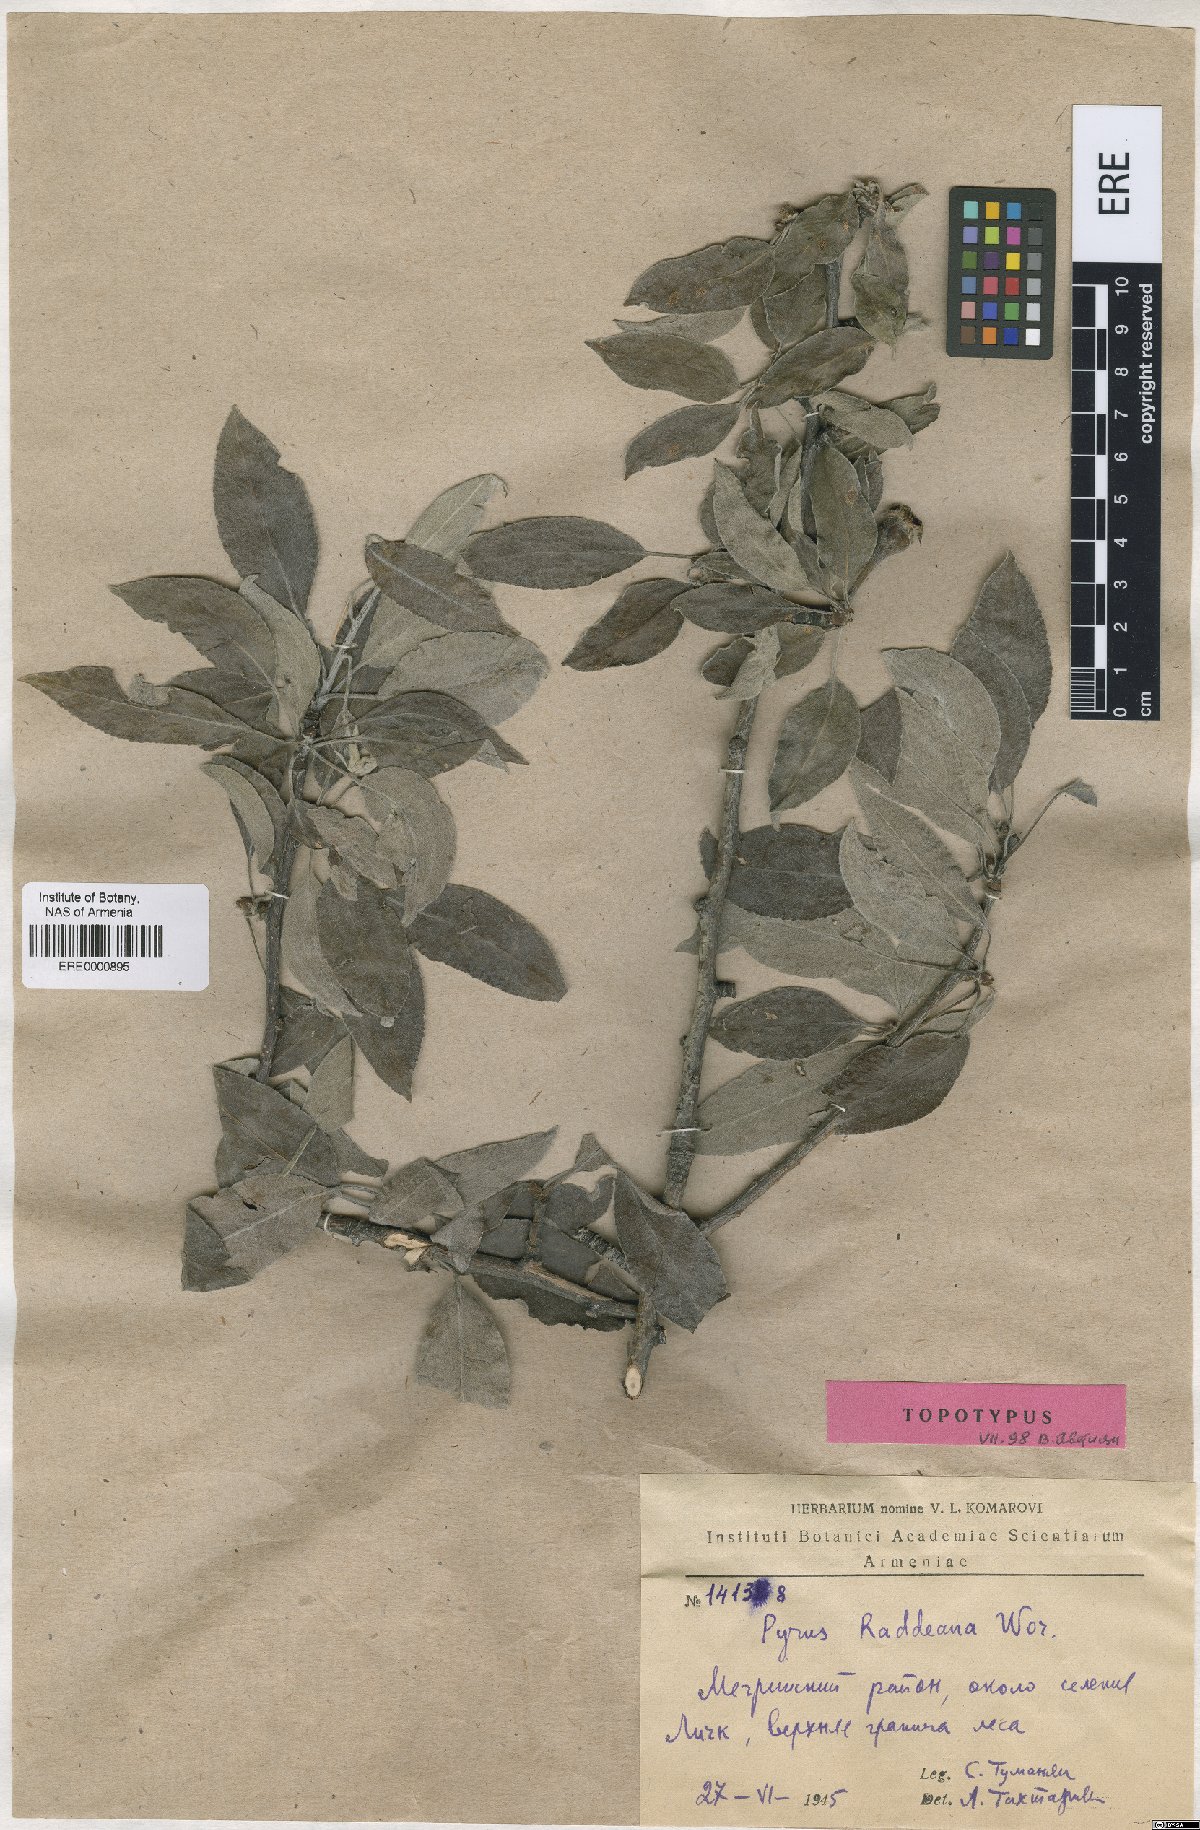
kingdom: Plantae
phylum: Tracheophyta
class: Magnoliopsida
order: Rosales
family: Rosaceae
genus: Pyrus
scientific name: Pyrus raddeana
